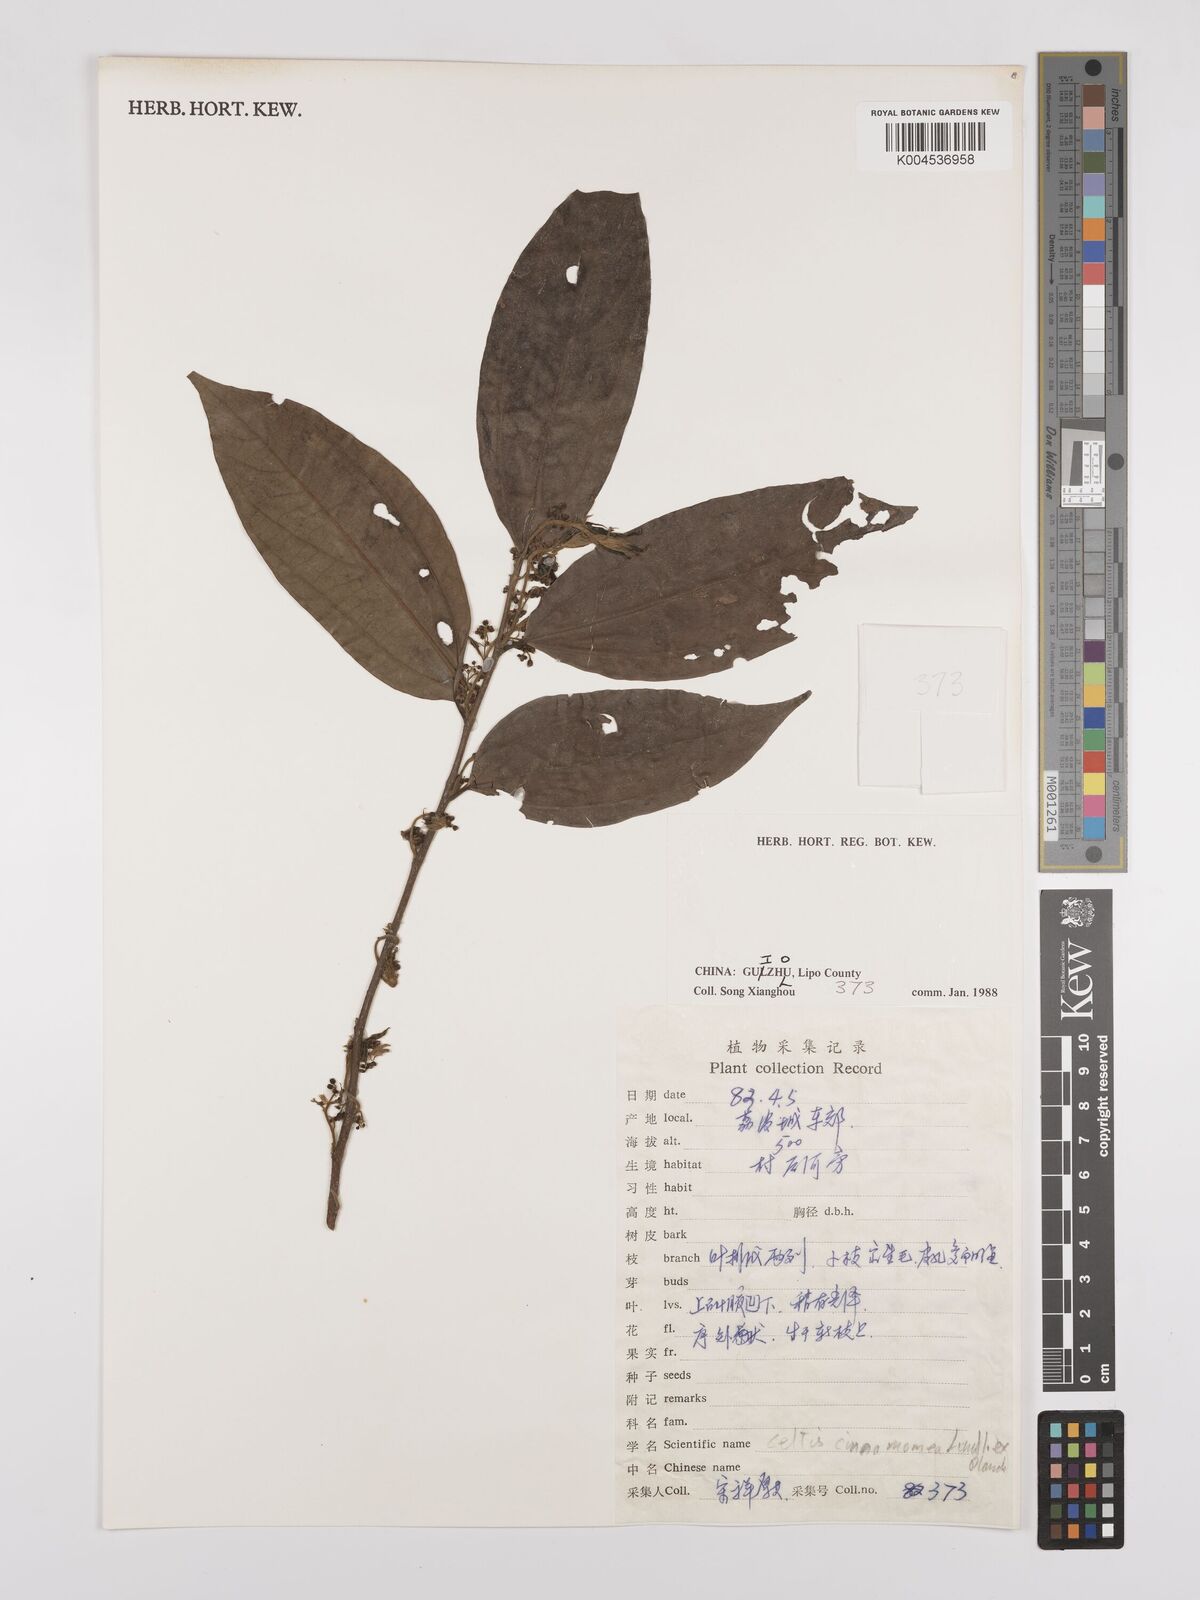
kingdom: Plantae
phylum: Tracheophyta
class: Magnoliopsida
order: Rosales
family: Cannabaceae
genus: Celtis
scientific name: Celtis timorensis
